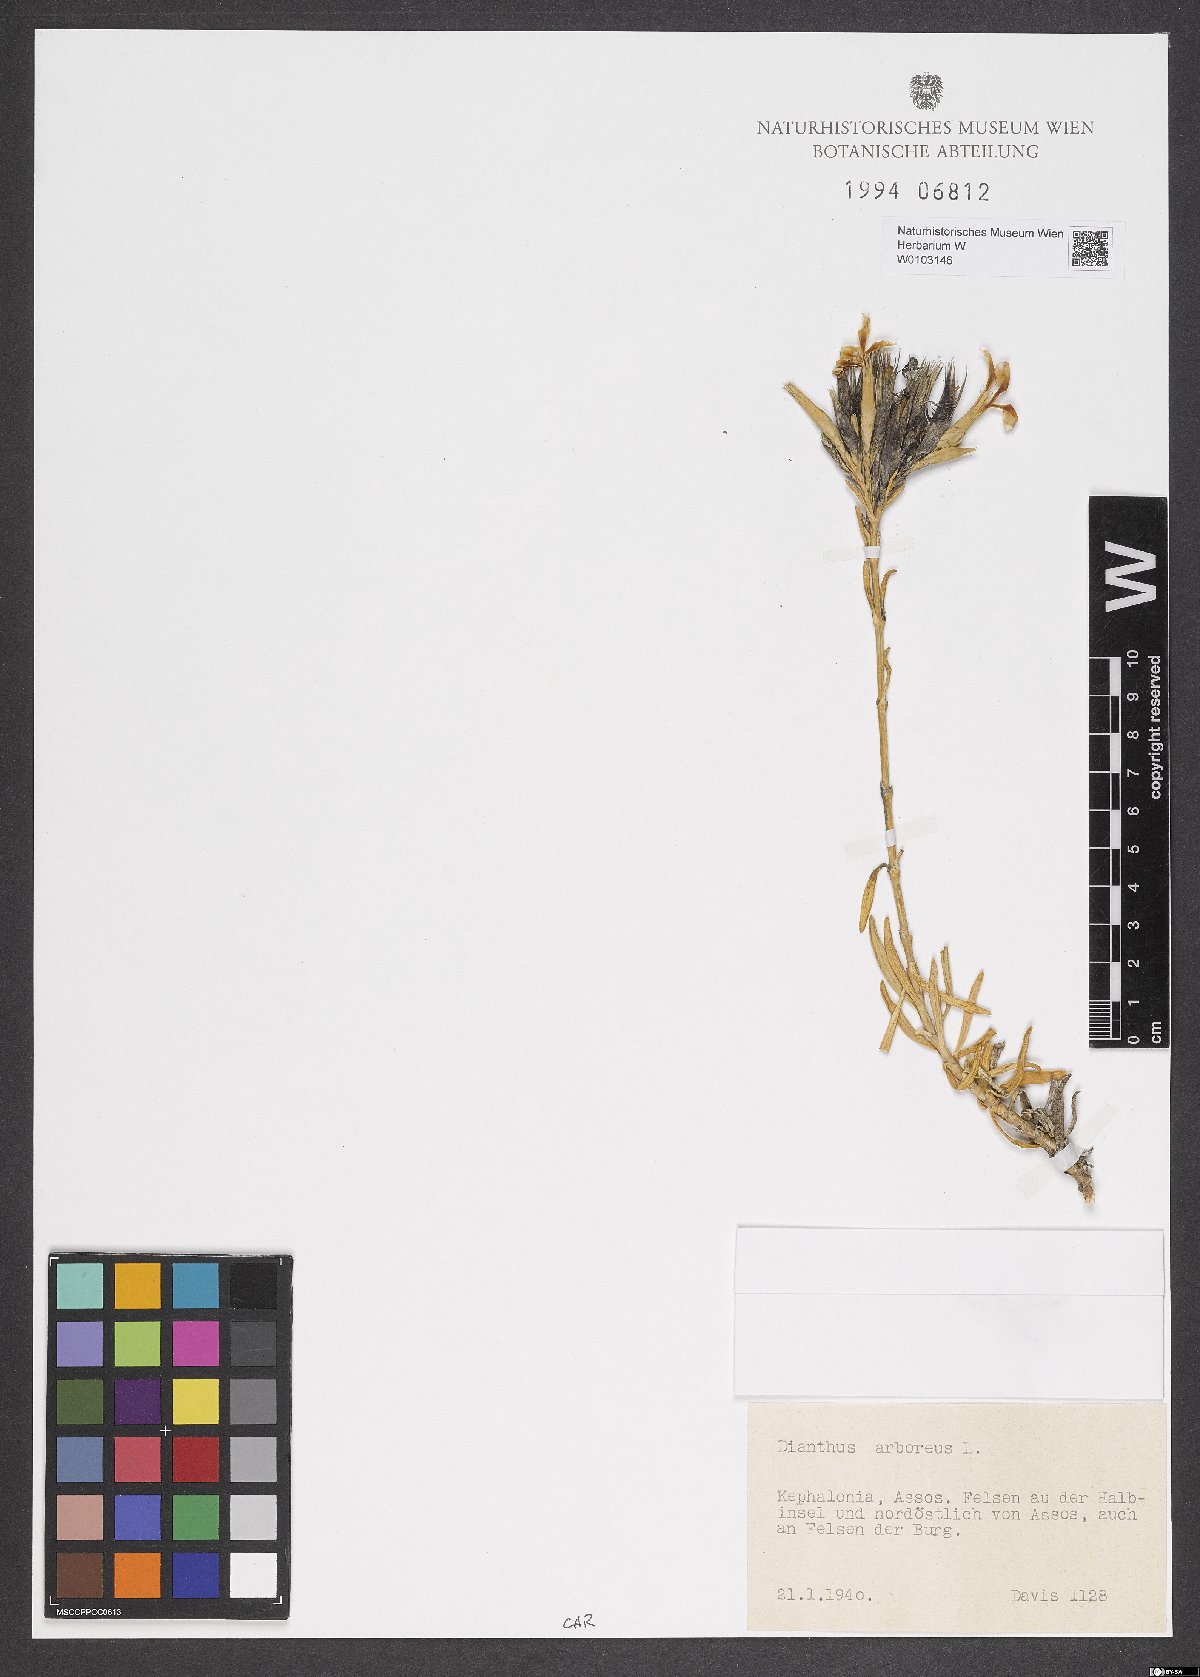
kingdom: Plantae
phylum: Tracheophyta
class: Magnoliopsida
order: Caryophyllales
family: Caryophyllaceae
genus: Dianthus
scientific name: Dianthus juniperinus
